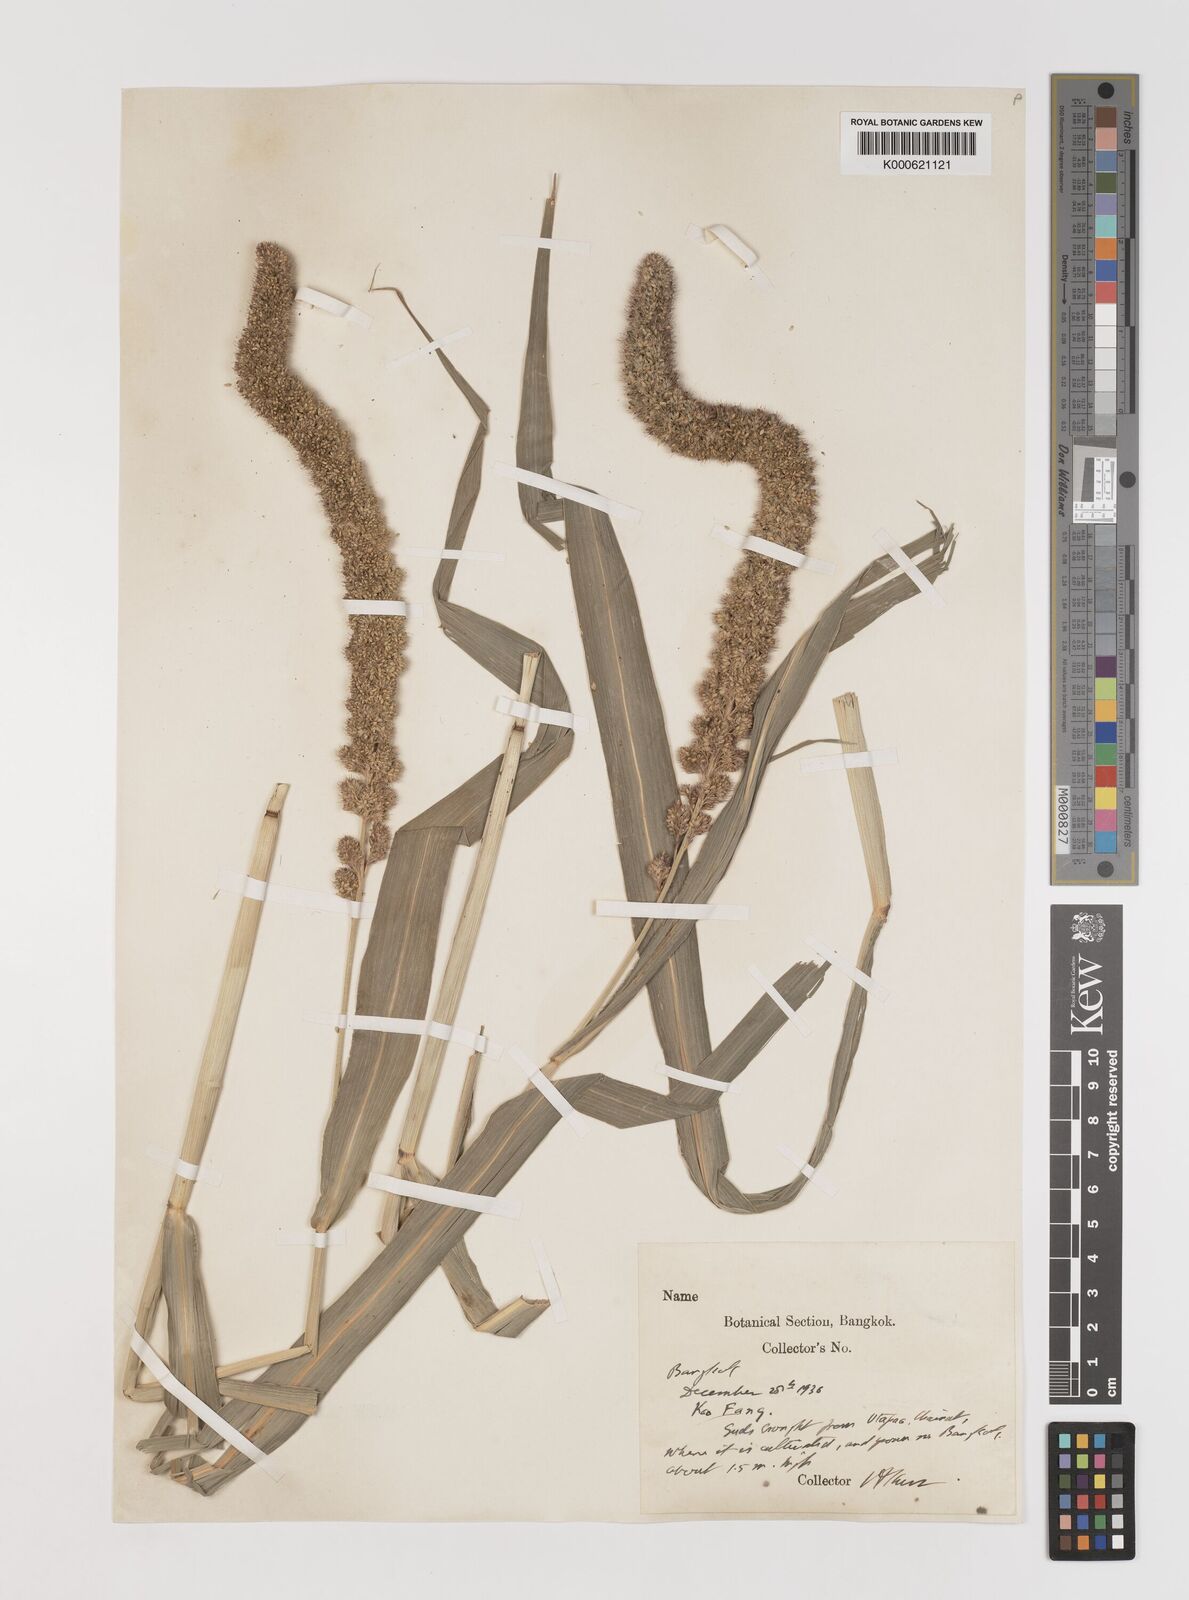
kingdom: Plantae
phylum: Tracheophyta
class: Liliopsida
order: Poales
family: Poaceae
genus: Setaria
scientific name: Setaria italica
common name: Foxtail bristle-grass
